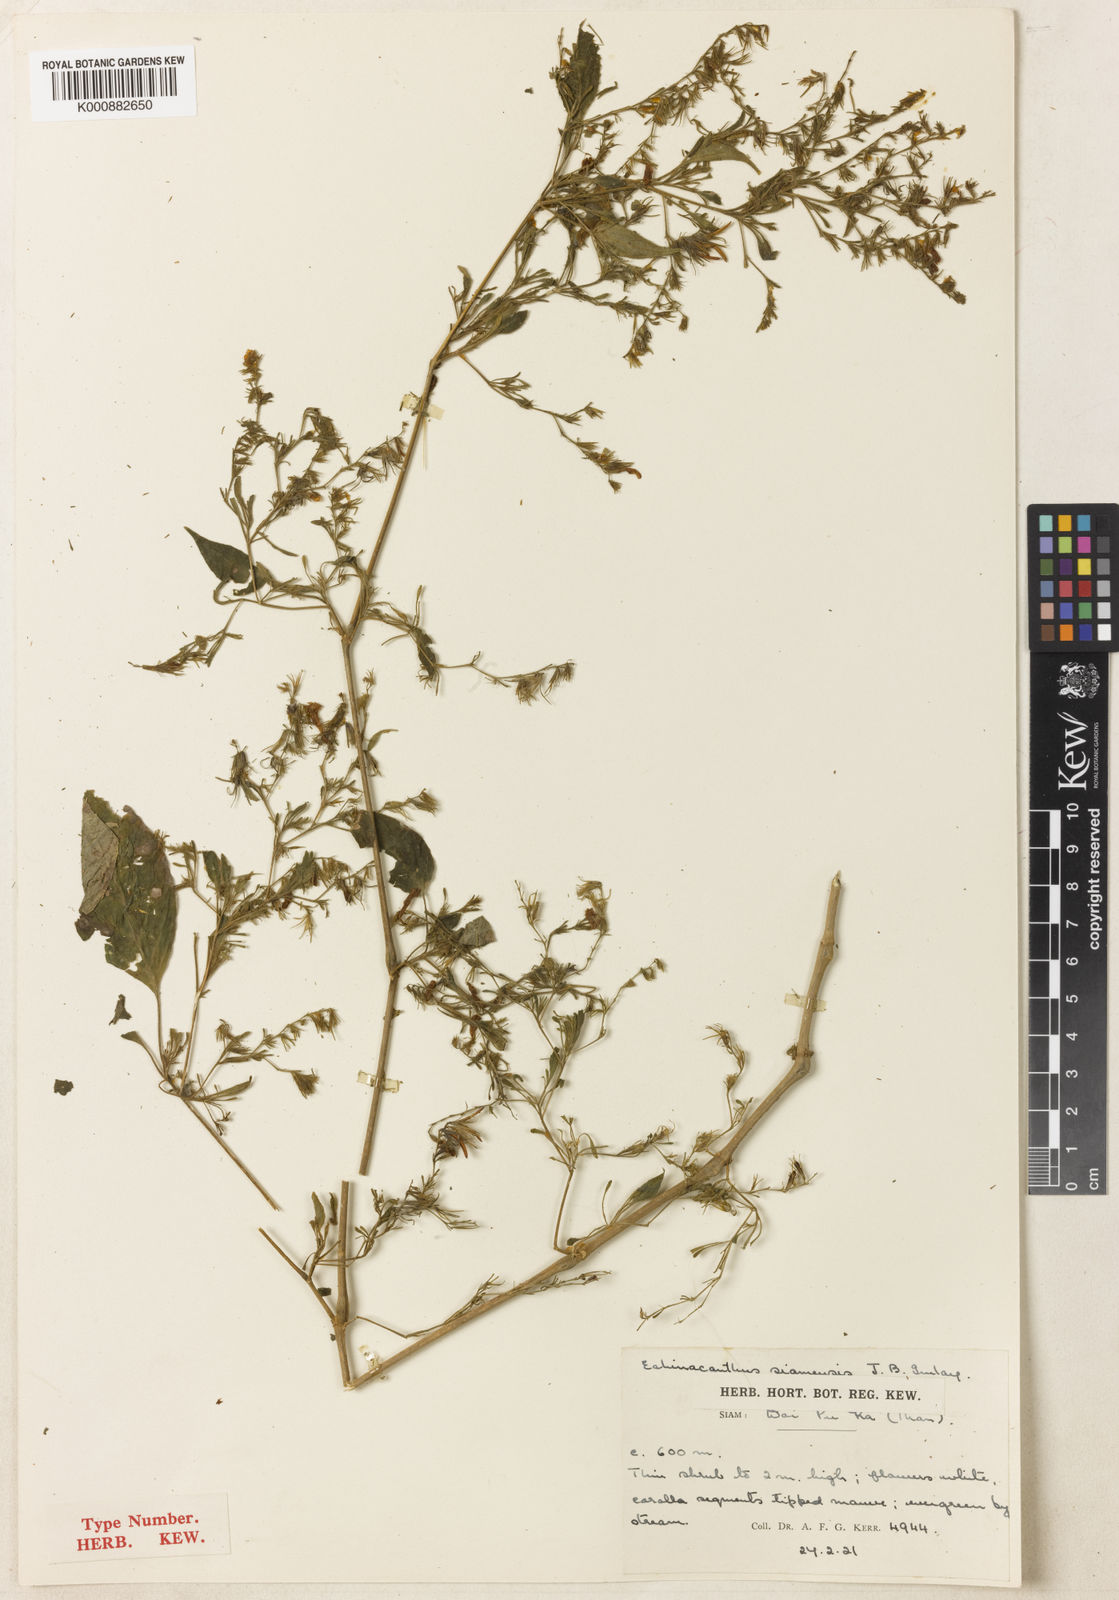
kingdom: Plantae
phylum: Tracheophyta
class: Magnoliopsida
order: Lamiales
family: Acanthaceae
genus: Strobilanthes
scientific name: Strobilanthes
